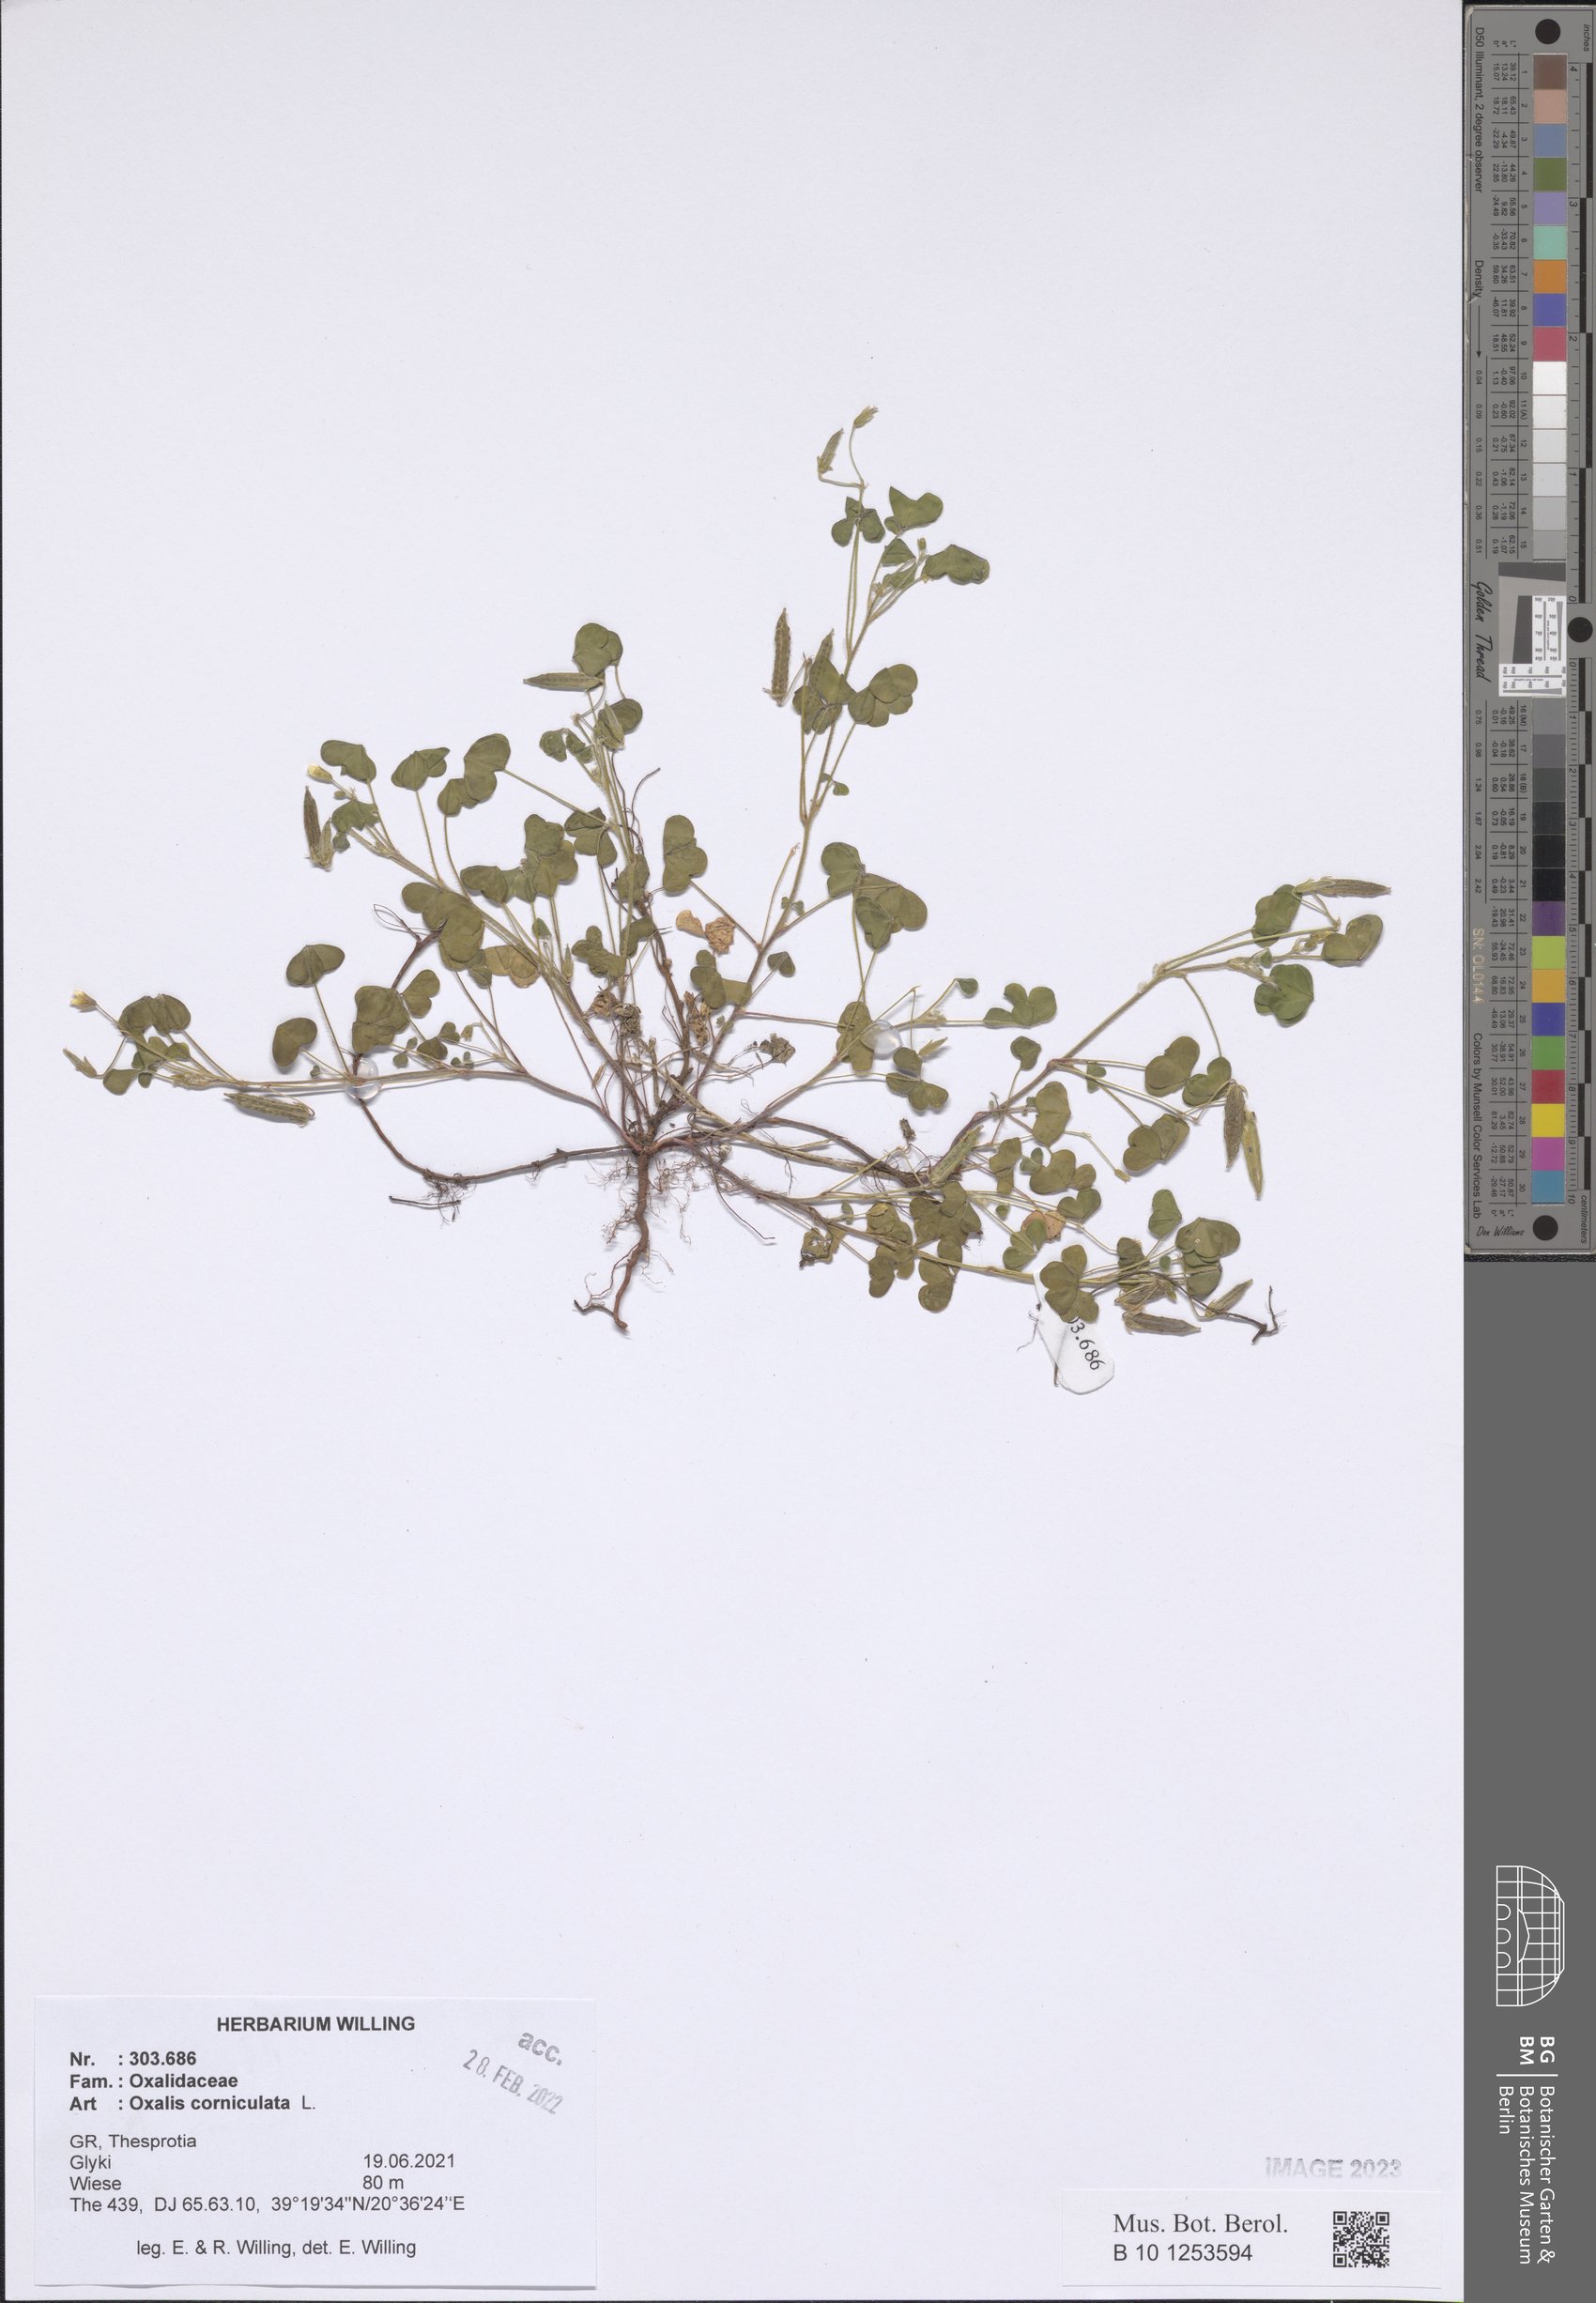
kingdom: Plantae
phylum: Tracheophyta
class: Magnoliopsida
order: Oxalidales
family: Oxalidaceae
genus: Oxalis
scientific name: Oxalis corniculata
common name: Procumbent yellow-sorrel
